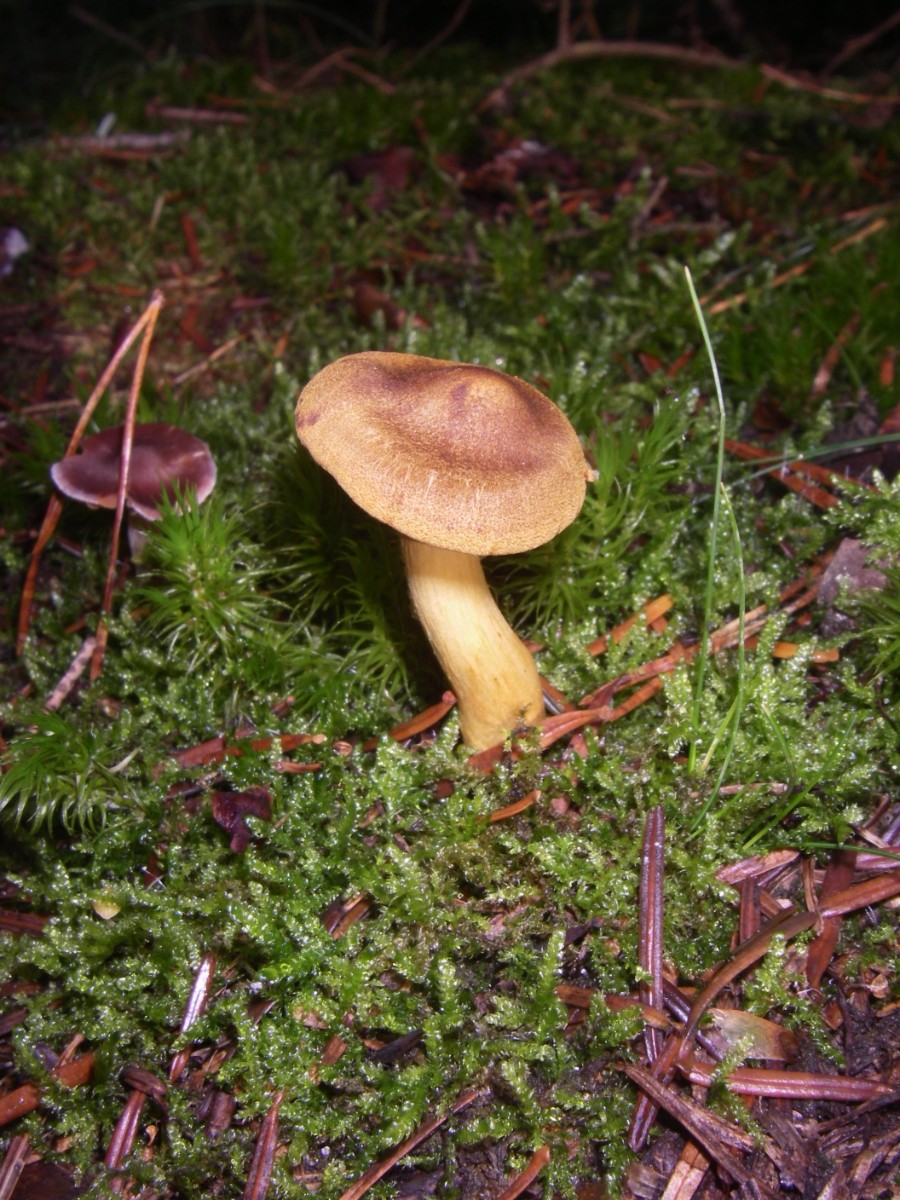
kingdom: Fungi
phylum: Basidiomycota
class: Agaricomycetes
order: Agaricales
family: Cortinariaceae
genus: Cortinarius
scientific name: Cortinarius
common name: cinnoberbladet slørhat
